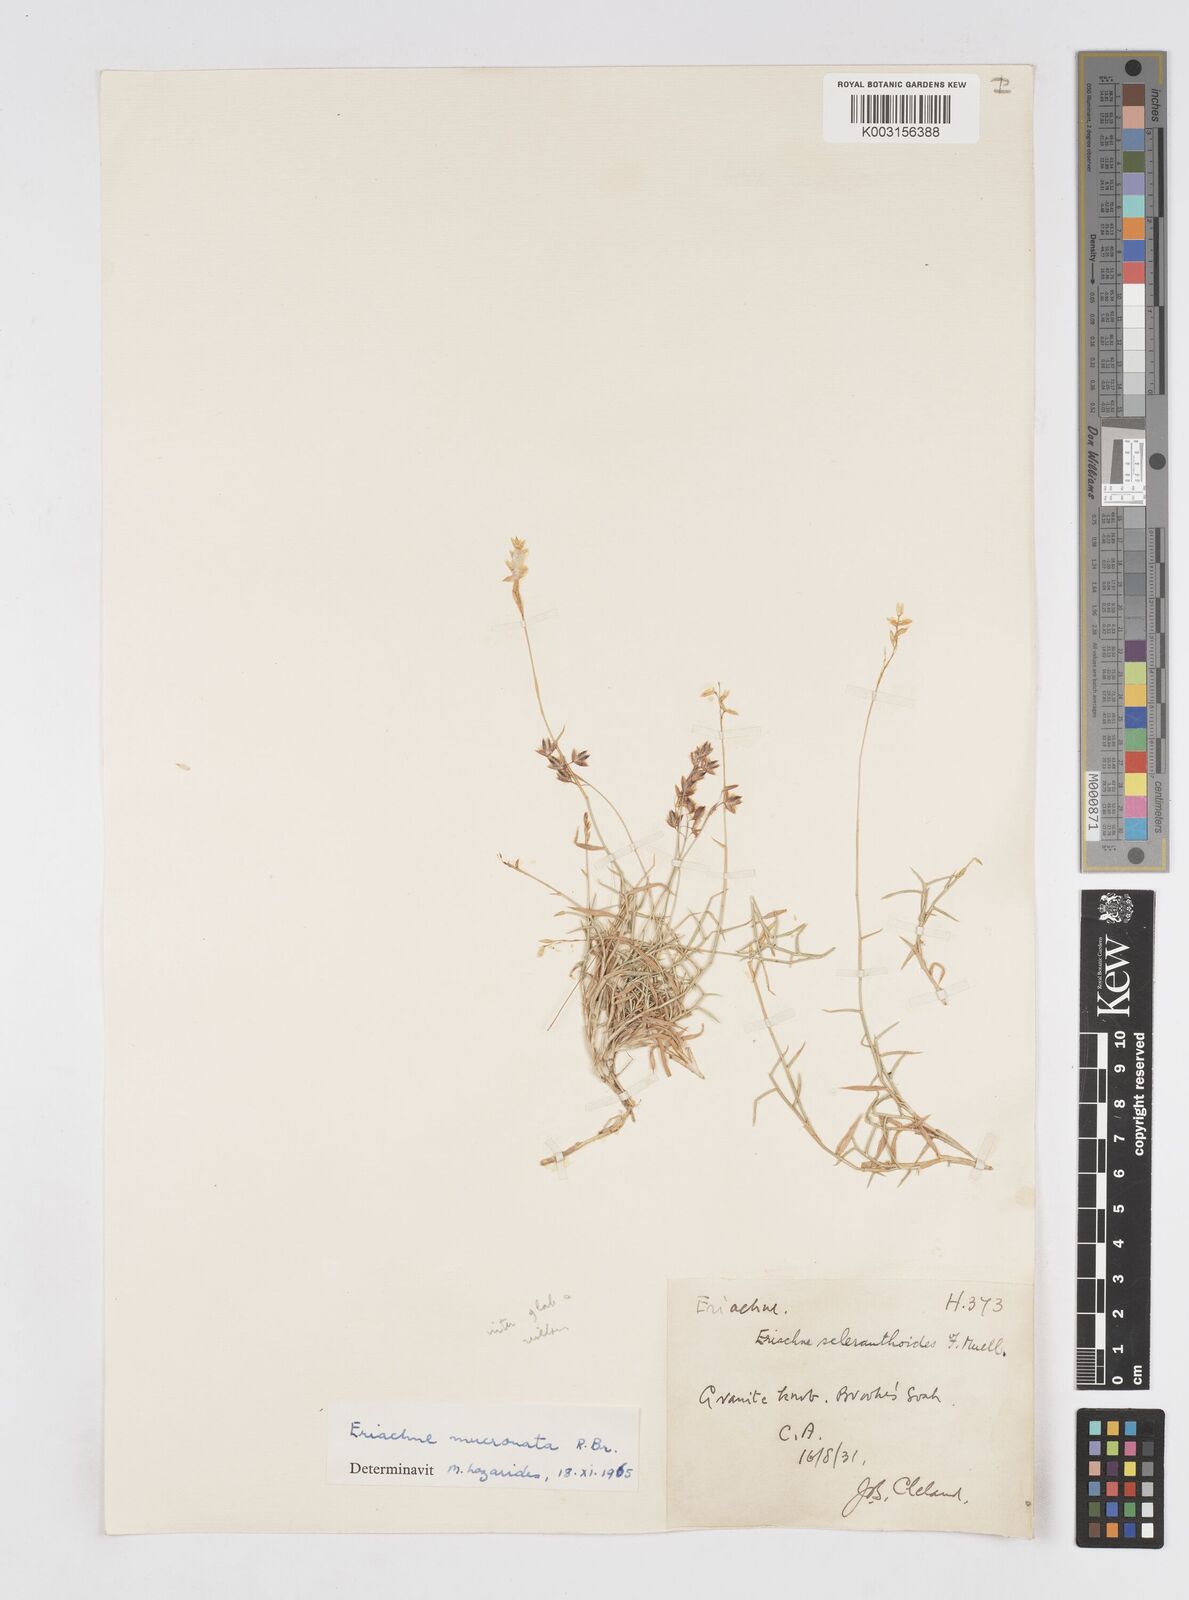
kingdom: Plantae
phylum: Tracheophyta
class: Liliopsida
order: Poales
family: Poaceae
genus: Eriachne
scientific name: Eriachne mucronata
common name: Mountain wanderrie grass
